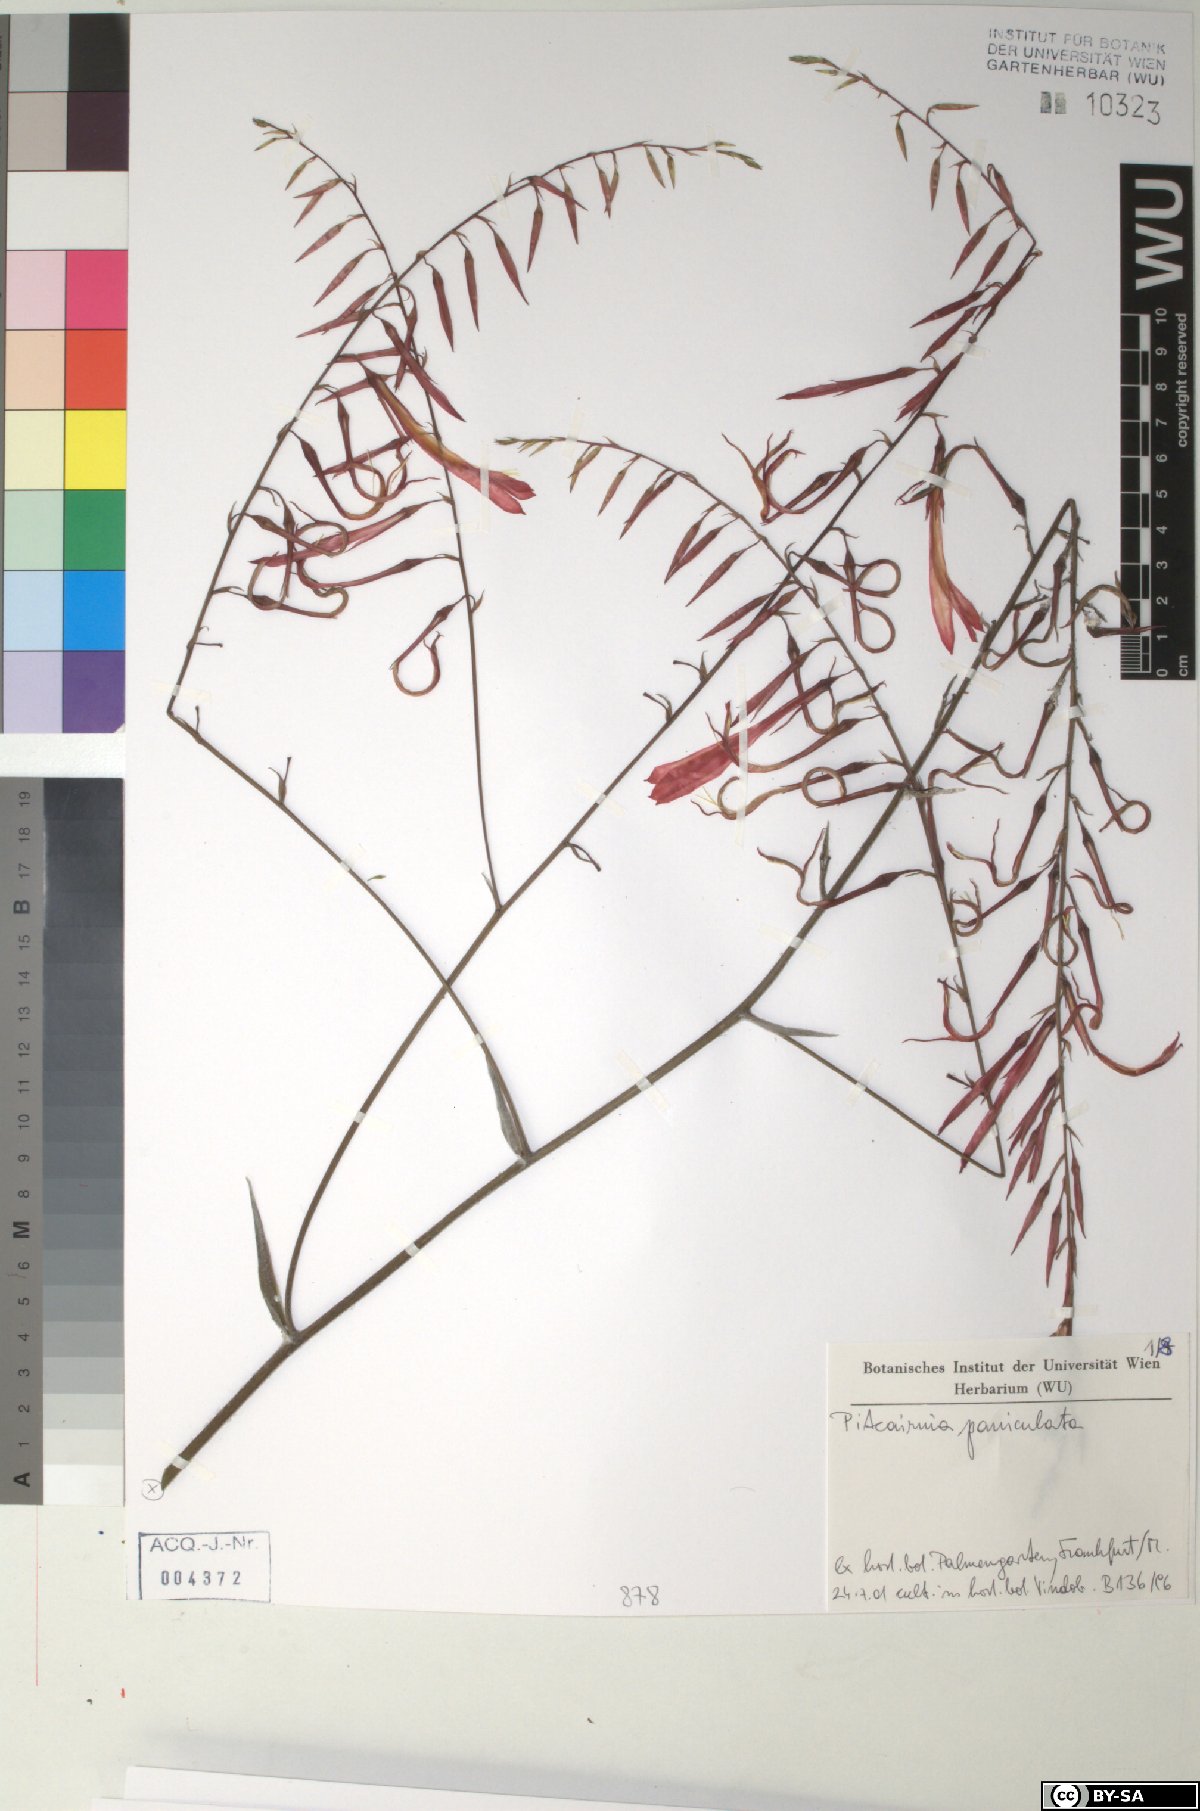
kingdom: Plantae
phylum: Tracheophyta
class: Liliopsida
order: Poales
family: Bromeliaceae
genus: Pitcairnia
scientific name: Pitcairnia paniculata
